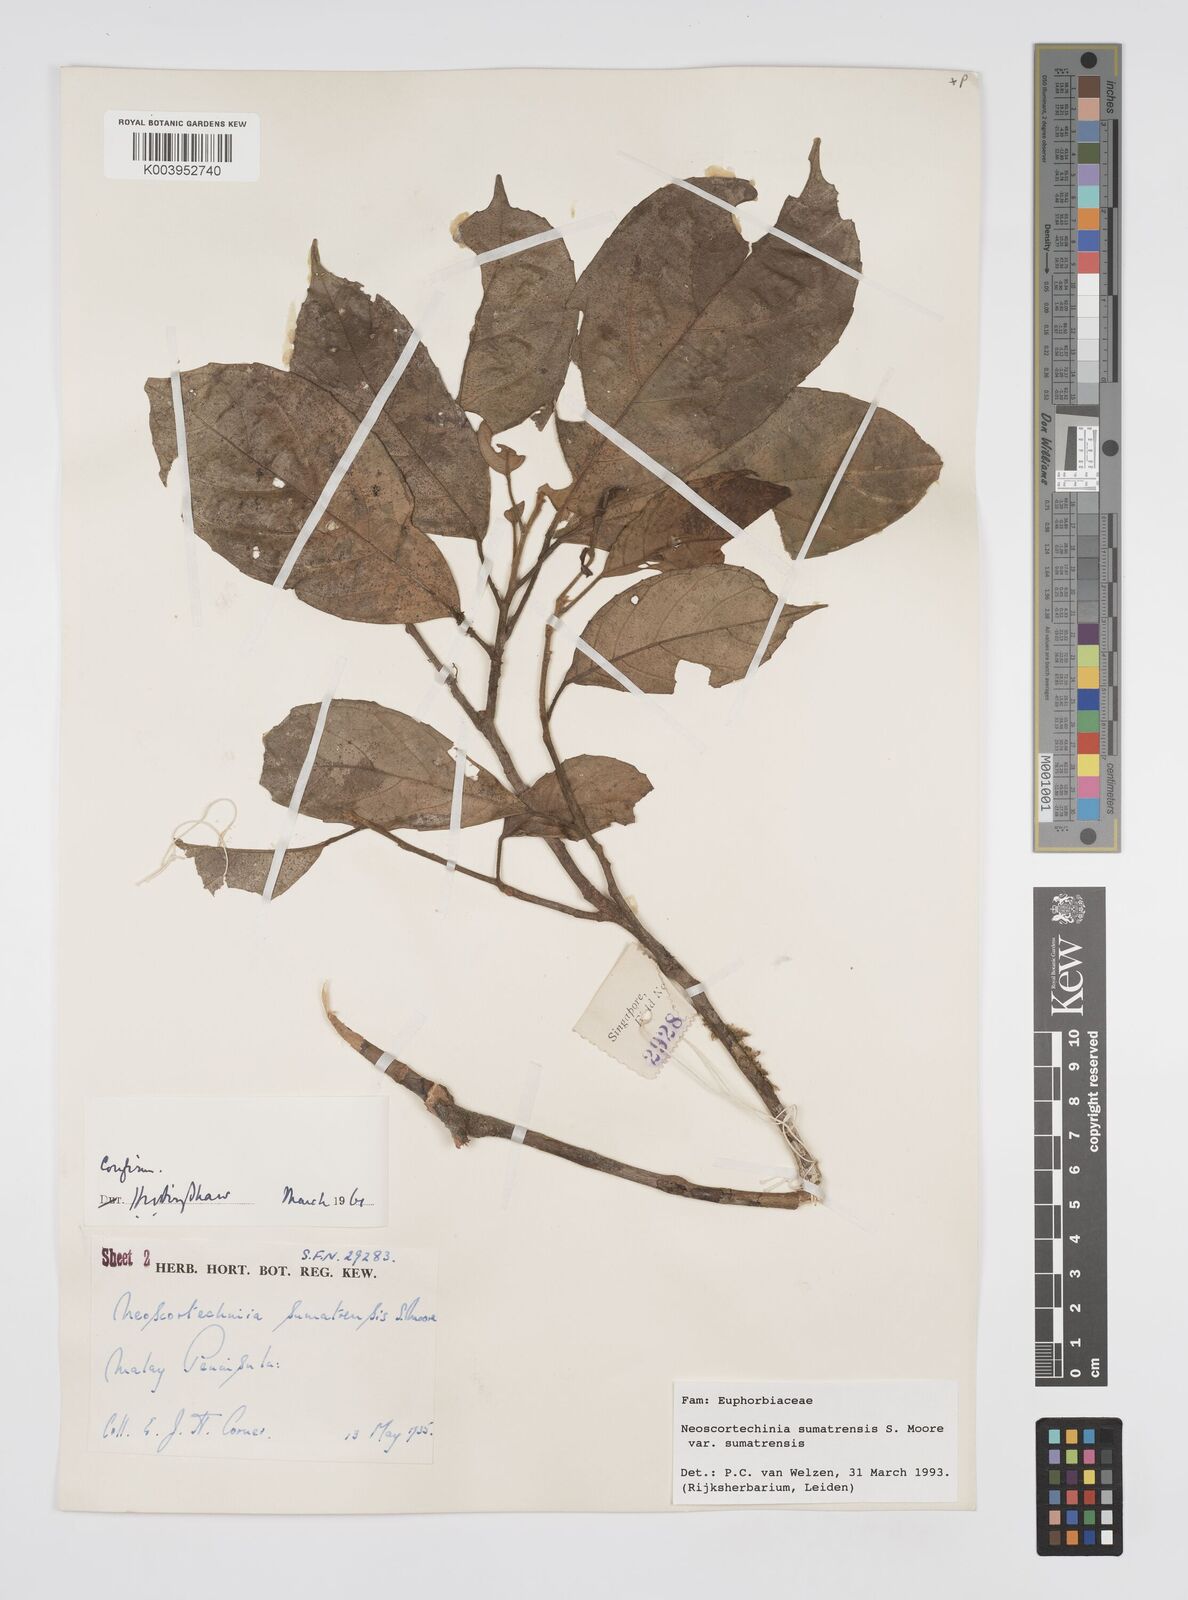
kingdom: Plantae
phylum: Tracheophyta
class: Magnoliopsida
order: Malpighiales
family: Euphorbiaceae
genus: Neoscortechinia
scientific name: Neoscortechinia sumatrensis
